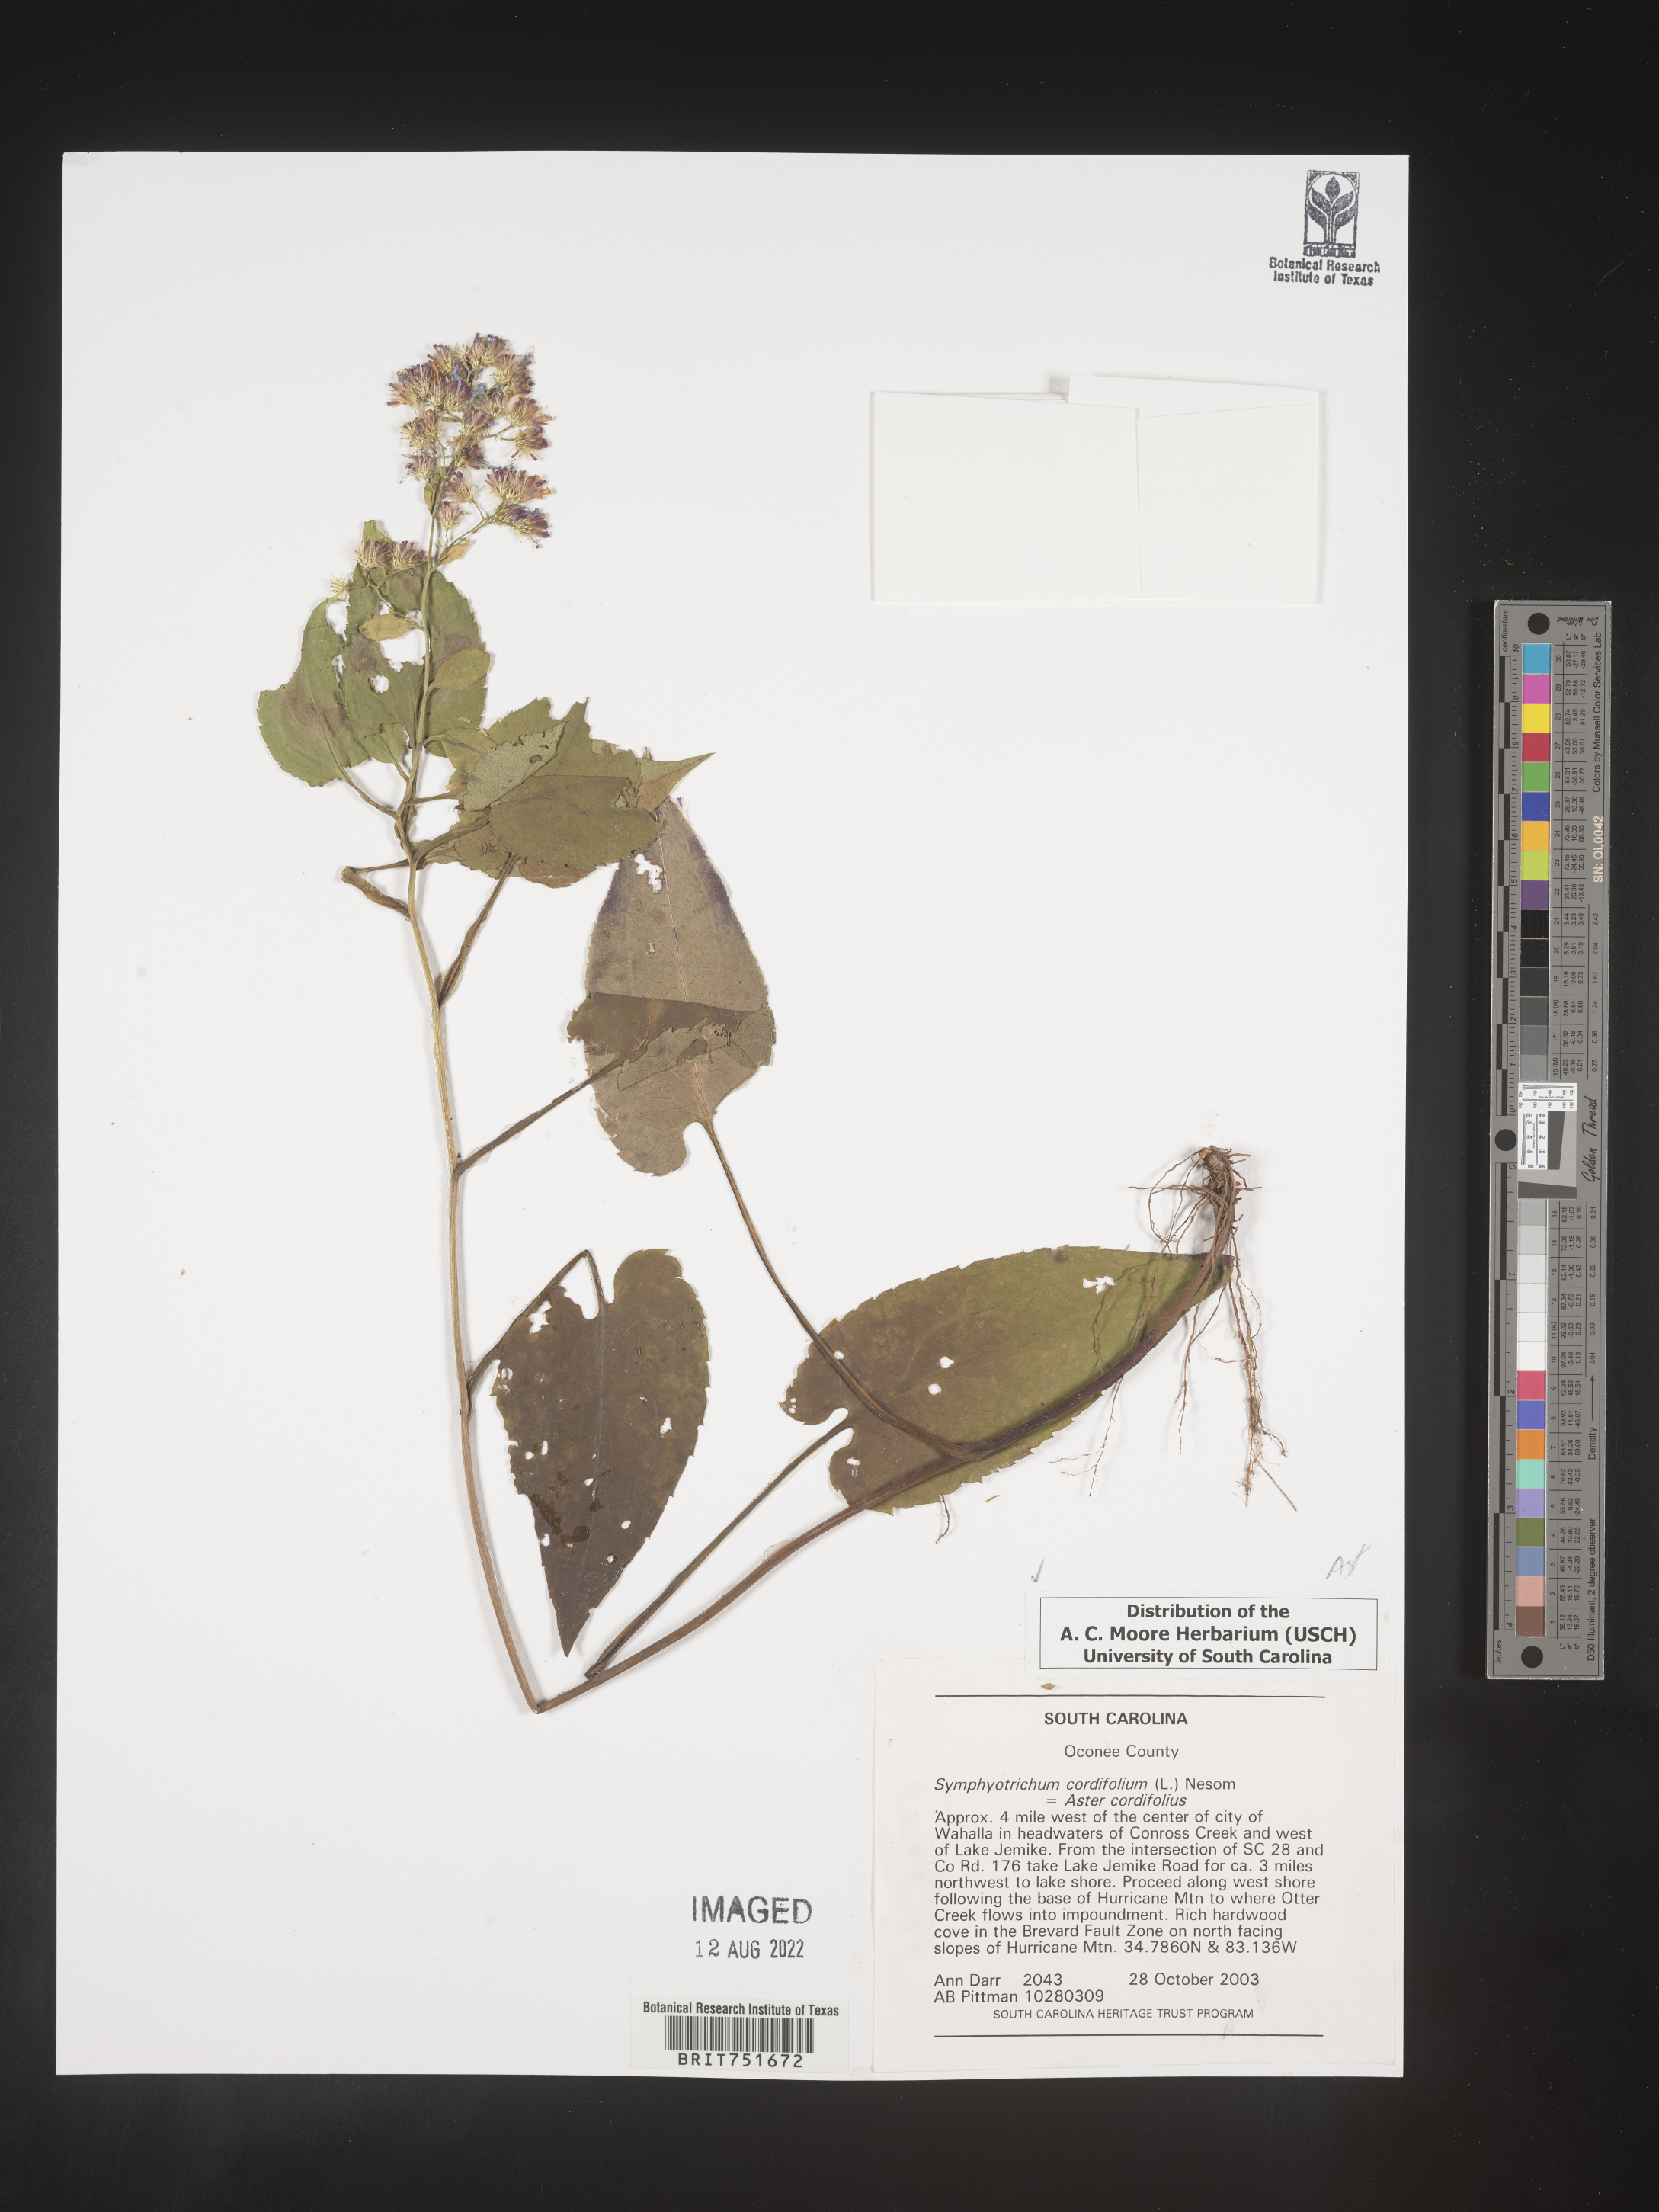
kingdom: Plantae
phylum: Tracheophyta
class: Magnoliopsida
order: Asterales
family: Asteraceae
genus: Symphyotrichum
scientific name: Symphyotrichum cordifolium
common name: Beeweed
